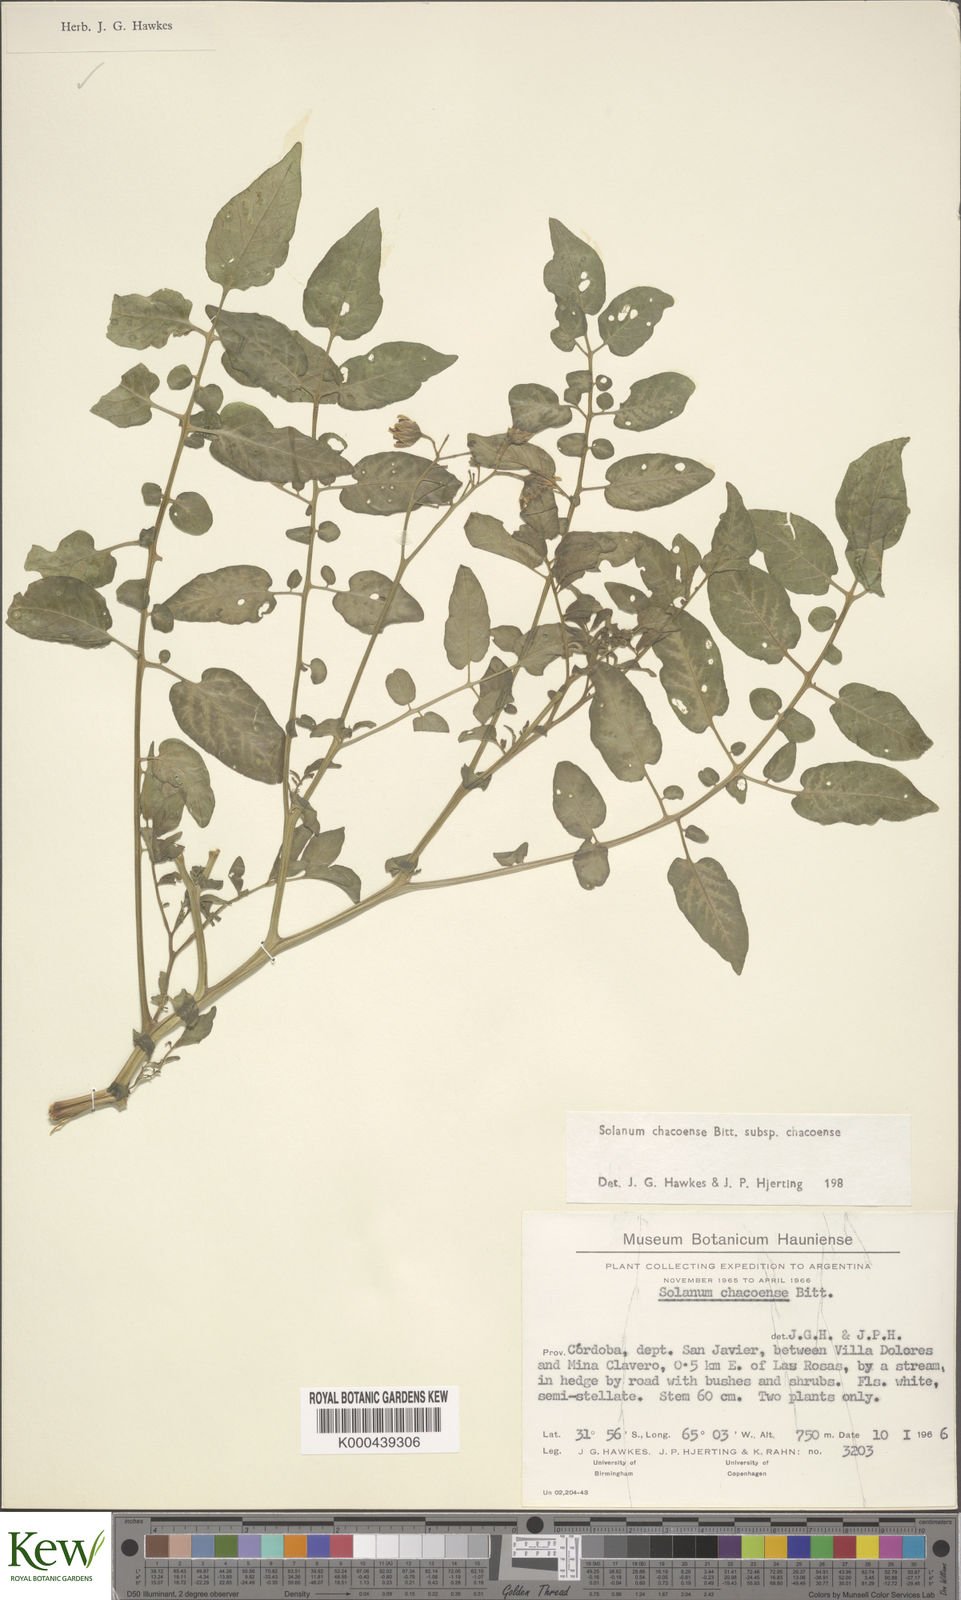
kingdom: Plantae
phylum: Tracheophyta
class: Magnoliopsida
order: Solanales
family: Solanaceae
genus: Solanum
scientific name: Solanum chacoense
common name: Chaco potato
